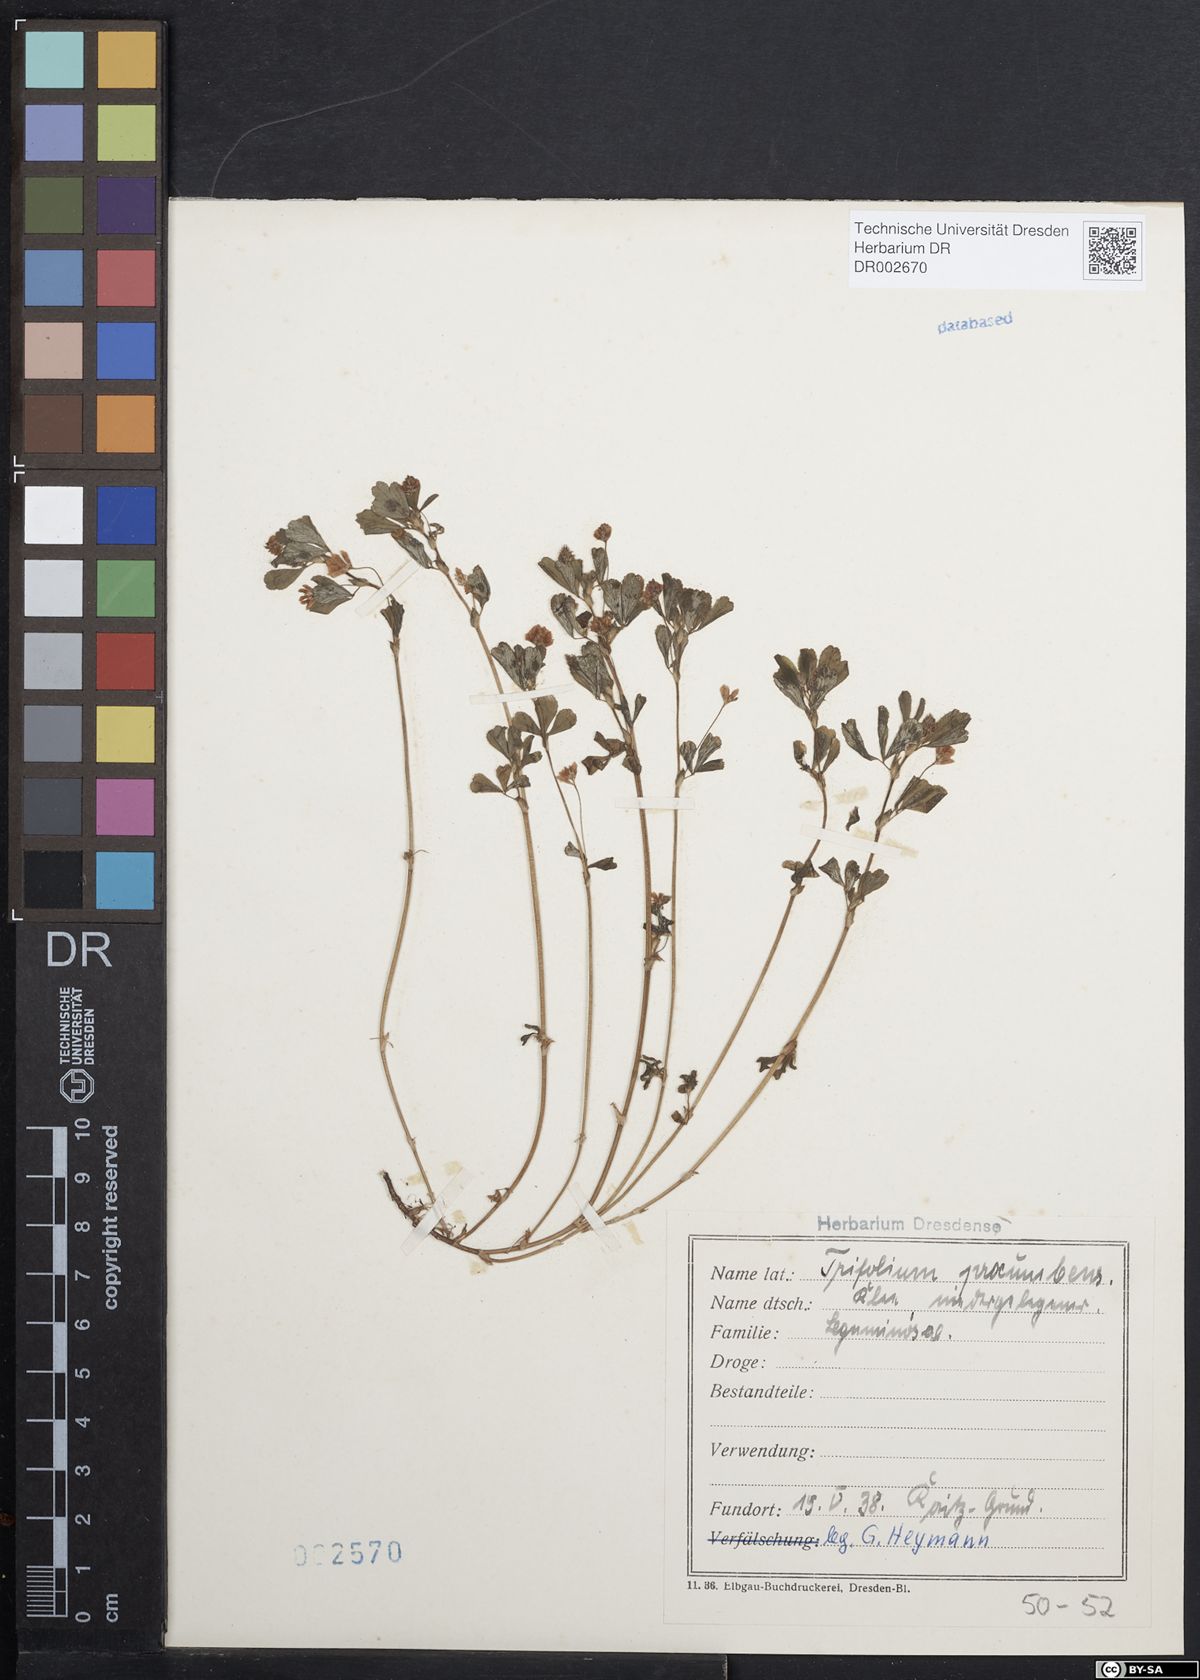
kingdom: Plantae
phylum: Tracheophyta
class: Magnoliopsida
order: Fabales
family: Fabaceae
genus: Trifolium
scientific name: Trifolium campestre
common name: Field clover
